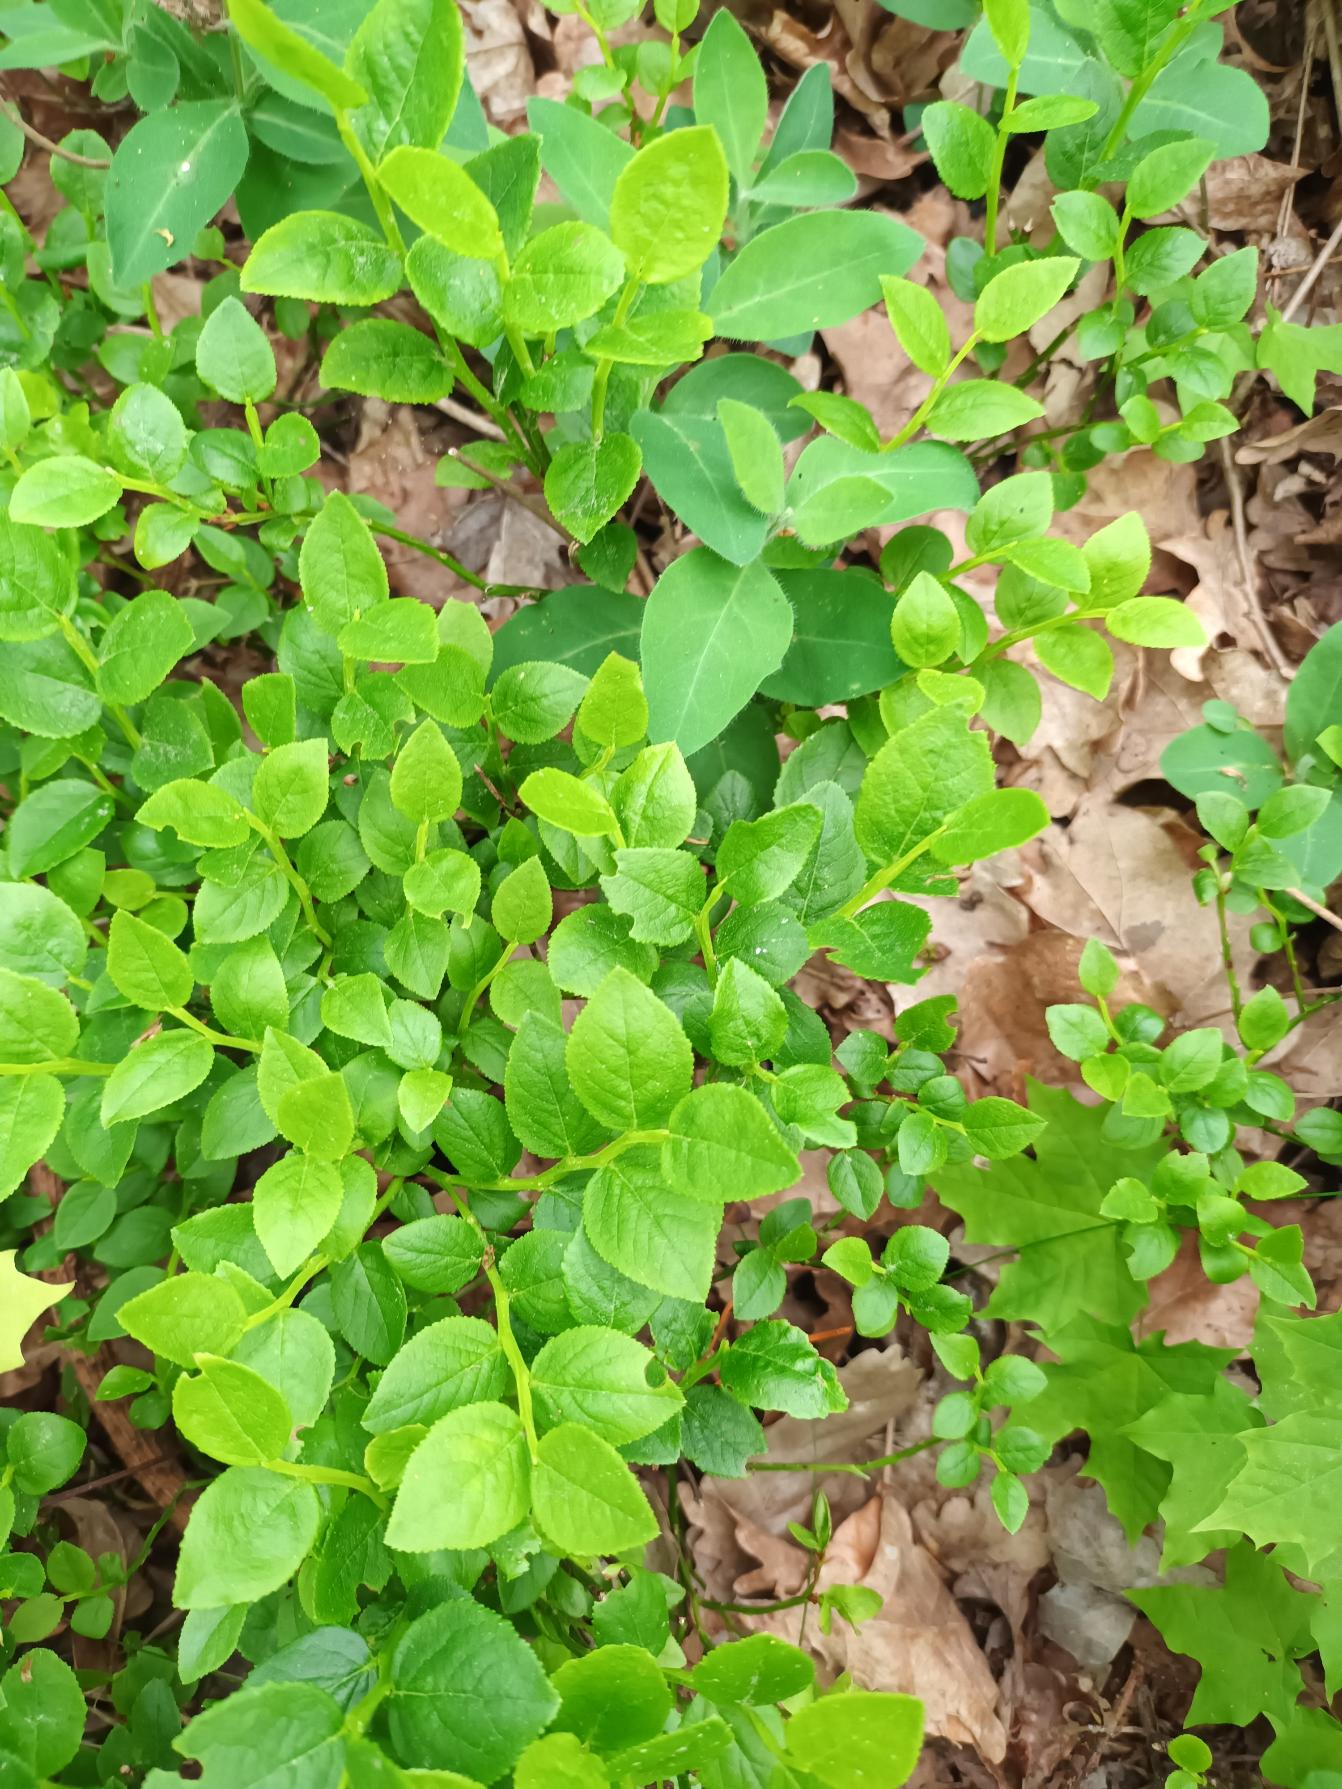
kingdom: Plantae
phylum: Tracheophyta
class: Magnoliopsida
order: Ericales
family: Ericaceae
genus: Vaccinium
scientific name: Vaccinium myrtillus
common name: Blåbær
